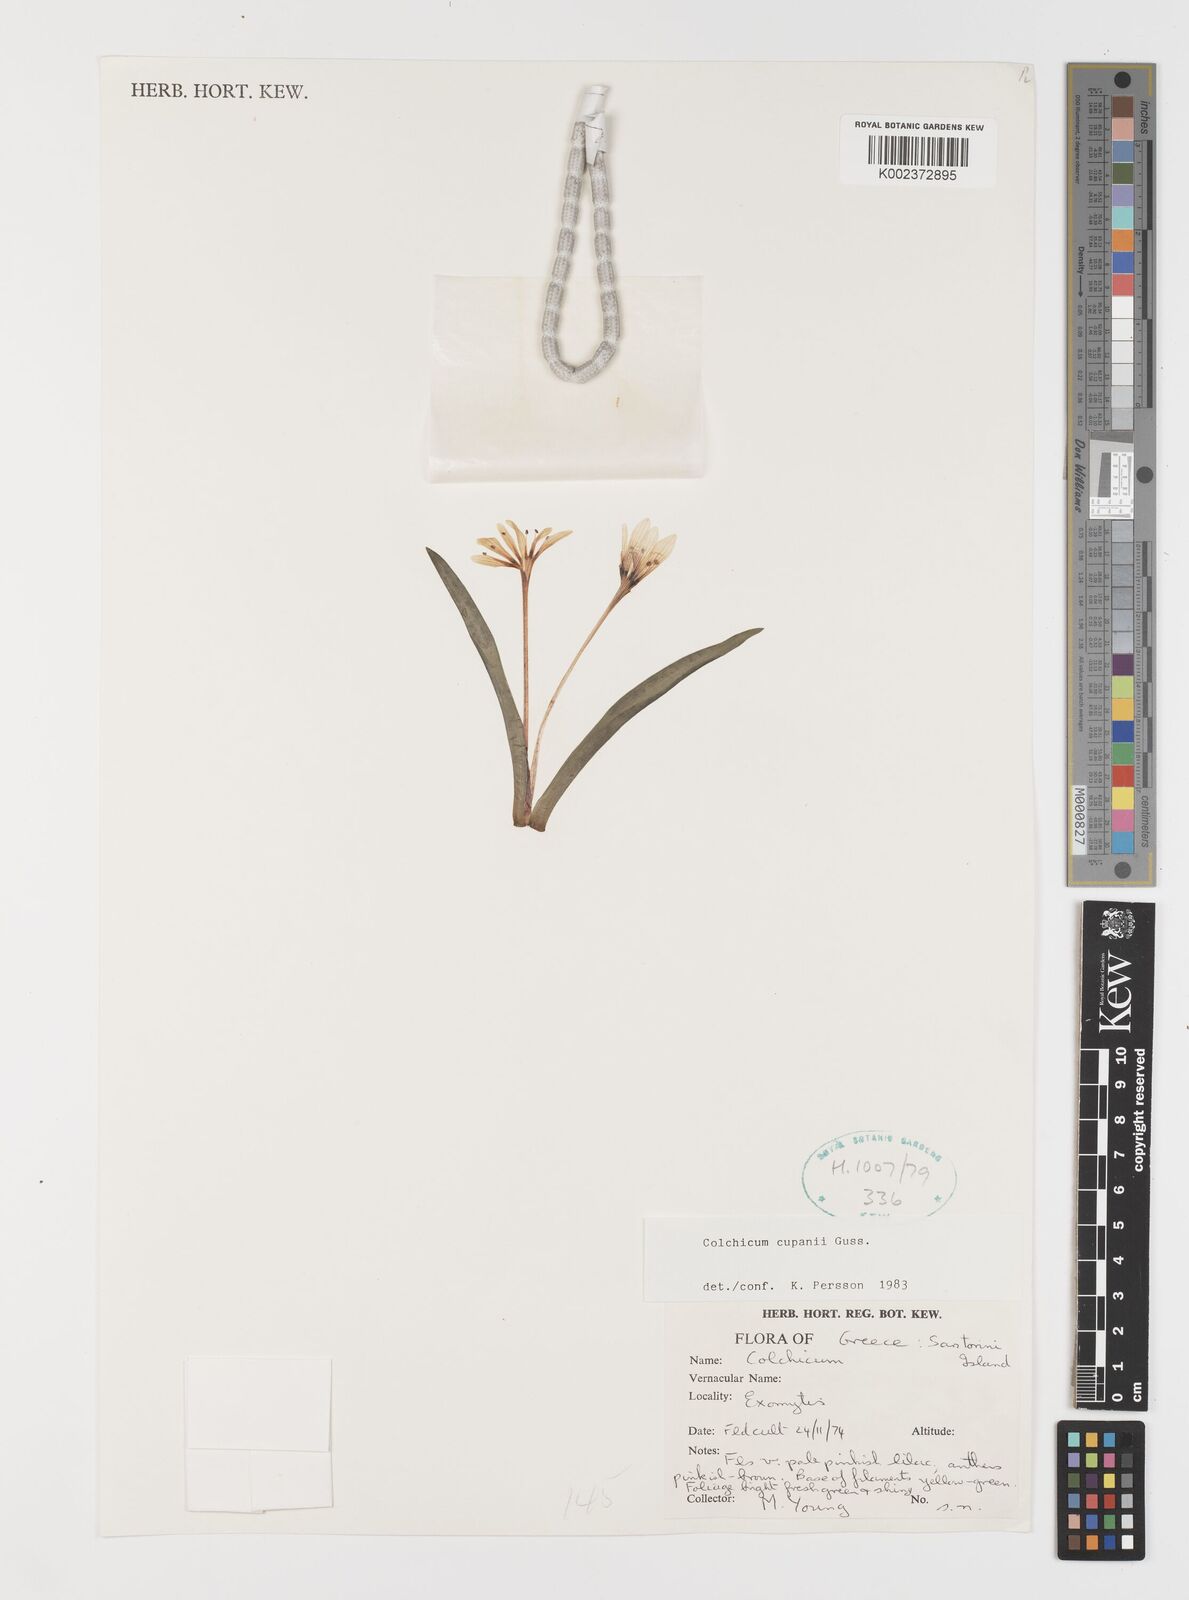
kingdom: Plantae
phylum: Tracheophyta
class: Liliopsida
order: Liliales
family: Colchicaceae
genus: Colchicum
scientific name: Colchicum cupanii
